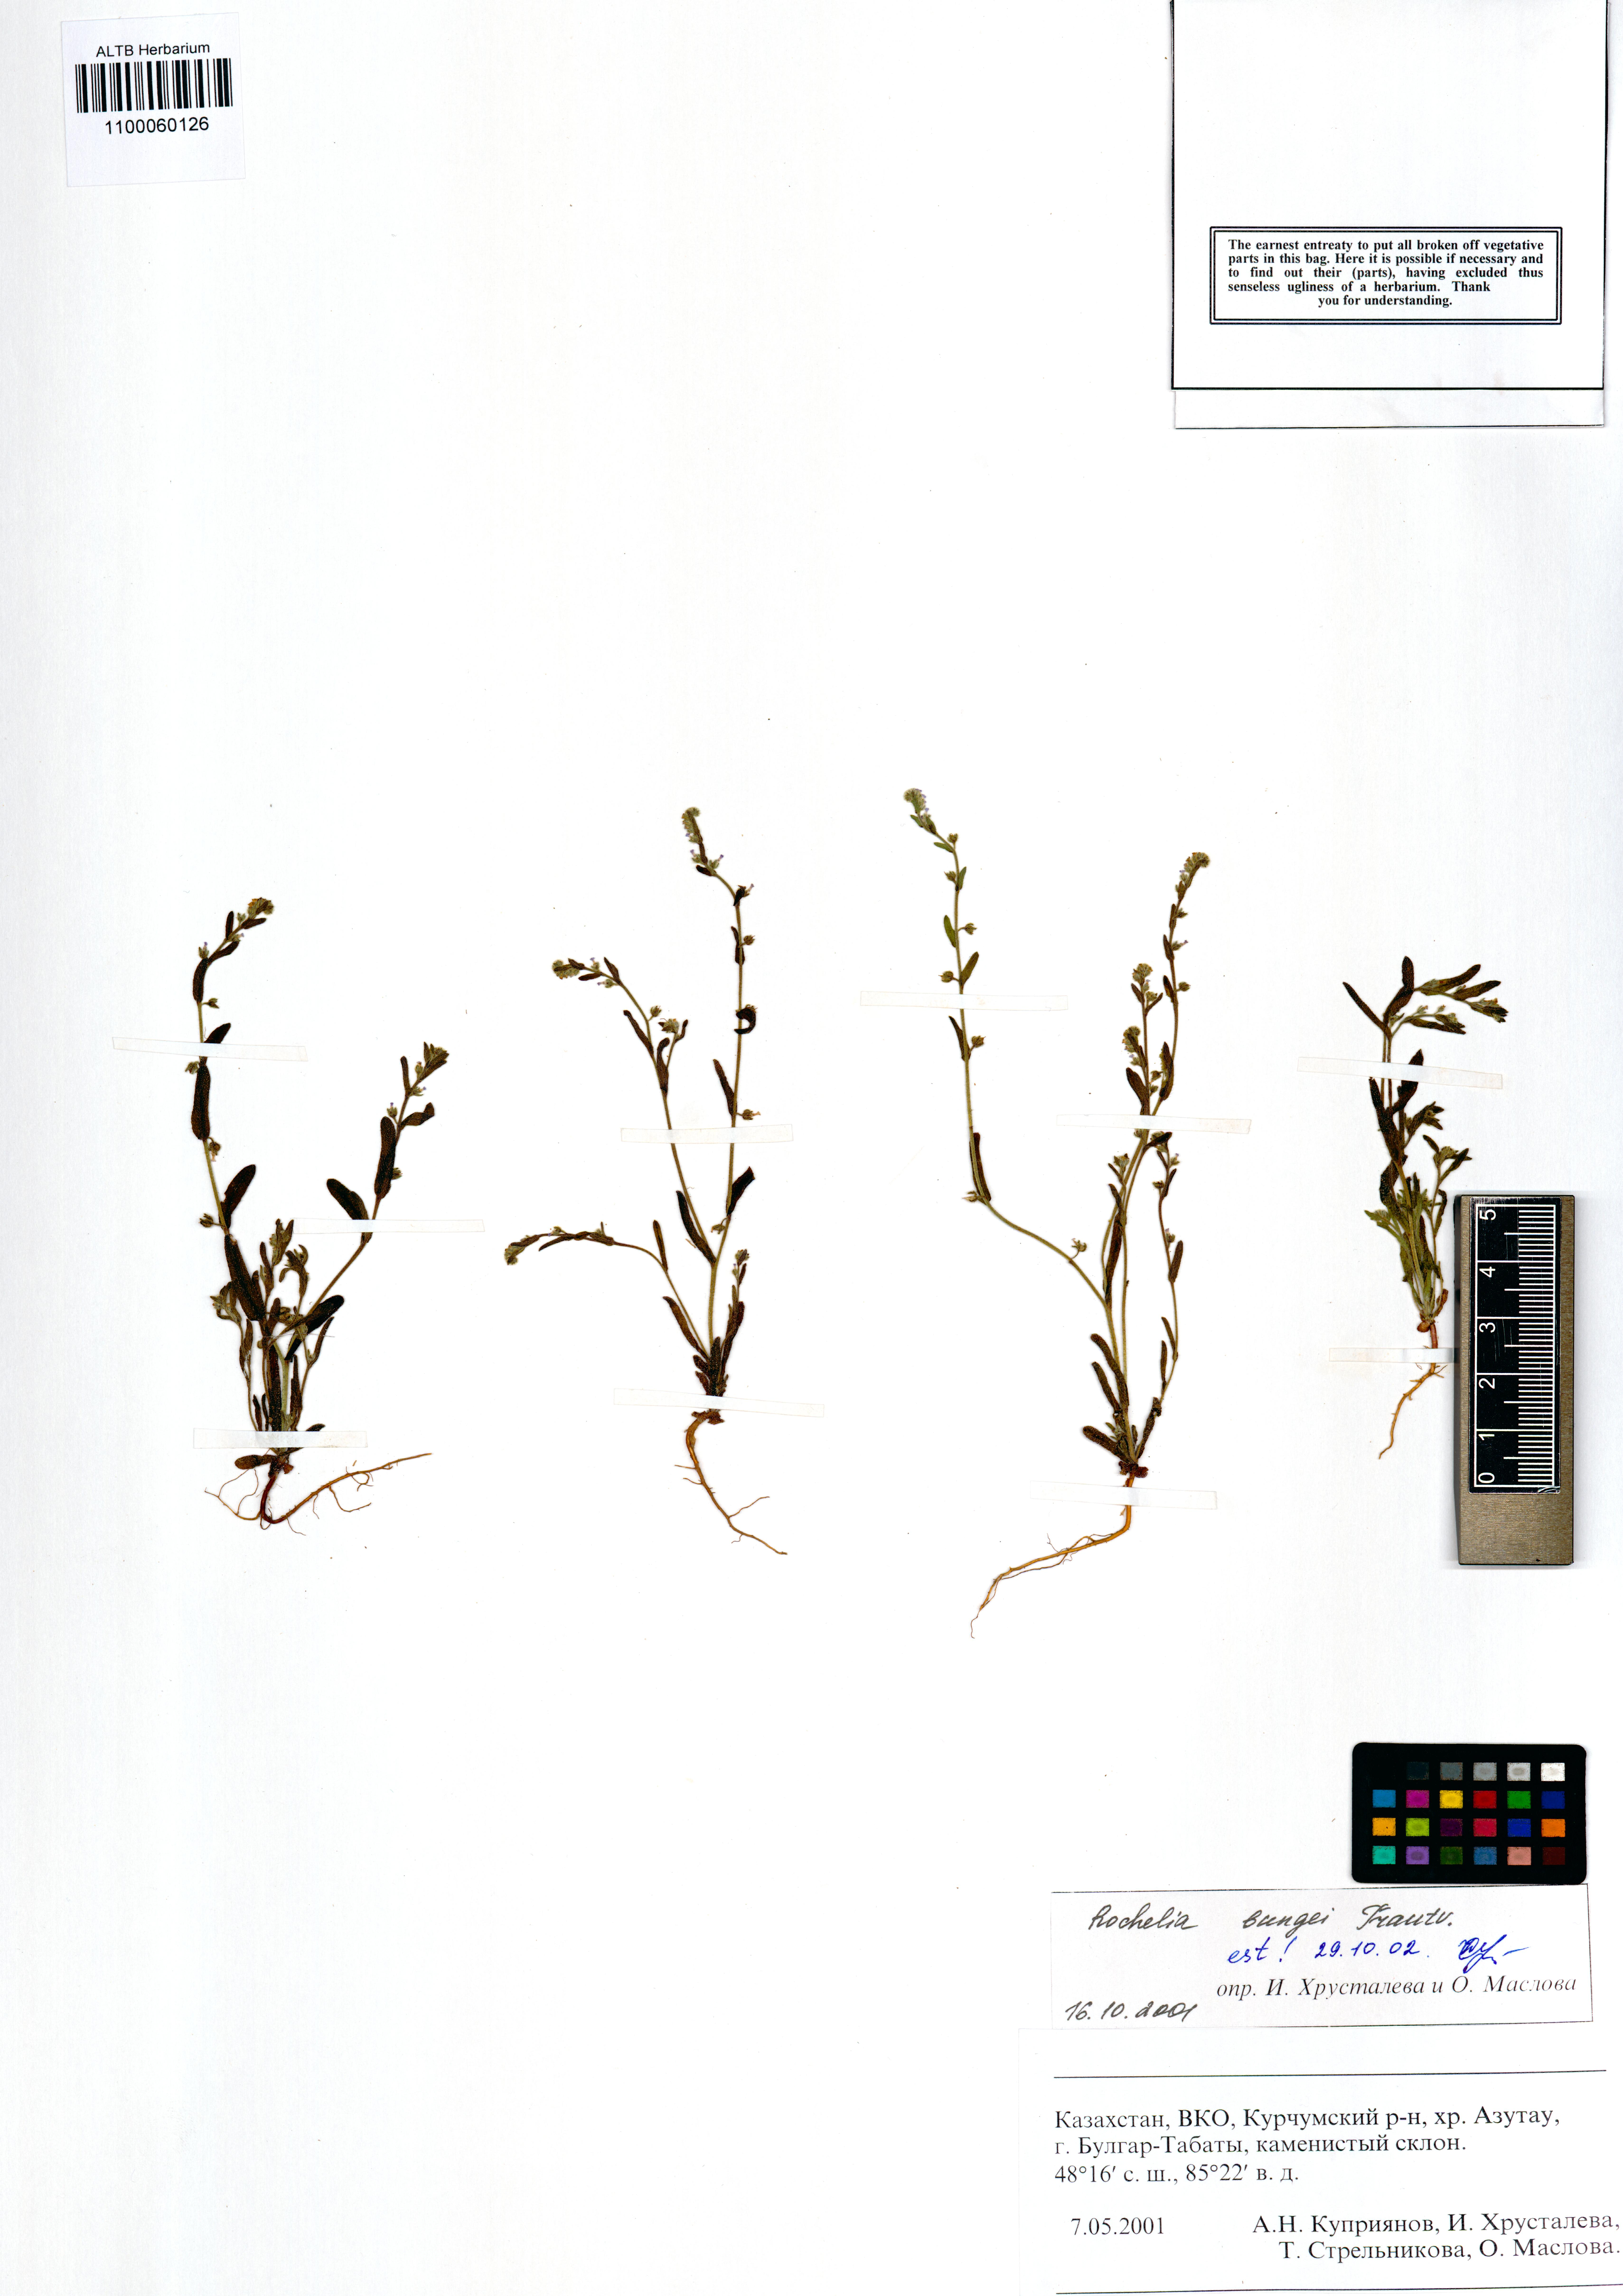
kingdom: Plantae
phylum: Tracheophyta
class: Magnoliopsida
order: Boraginales
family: Boraginaceae
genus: Rochelia
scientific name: Rochelia bungei
